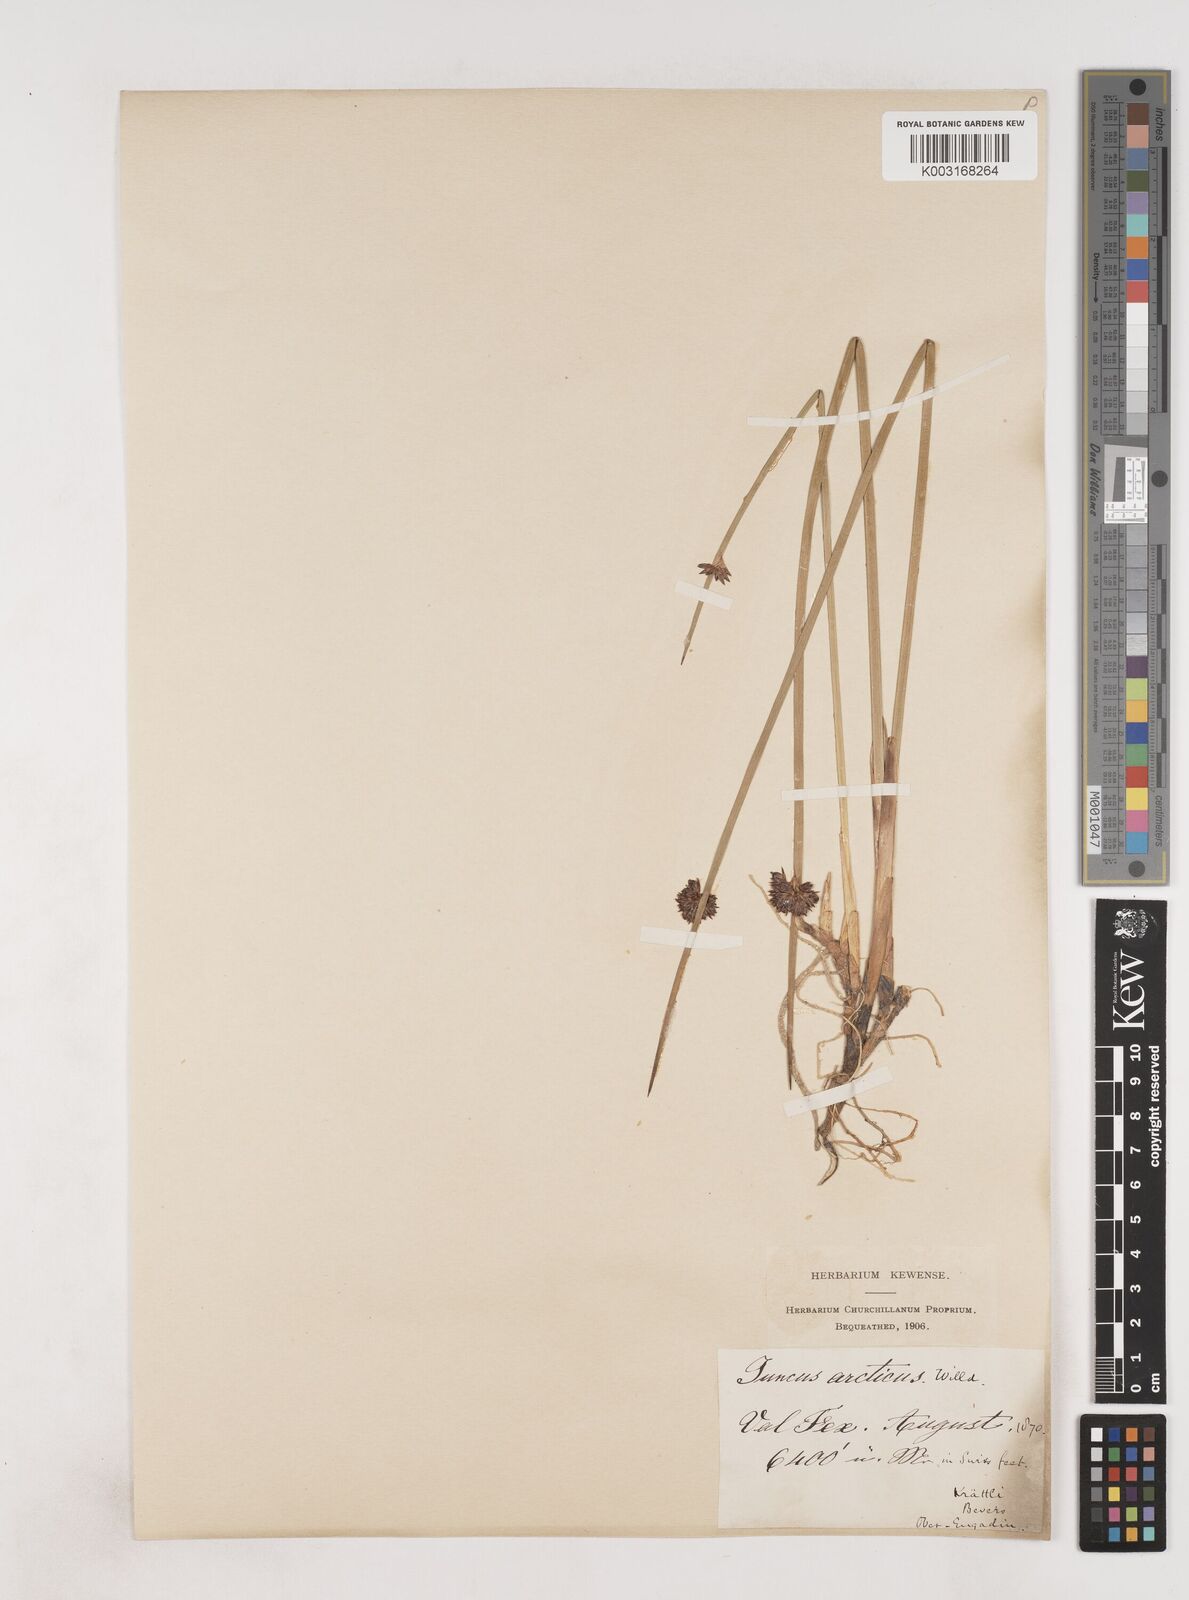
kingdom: Plantae
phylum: Tracheophyta
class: Liliopsida
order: Poales
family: Juncaceae
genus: Juncus
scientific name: Juncus arcticus
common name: Arctic rush
